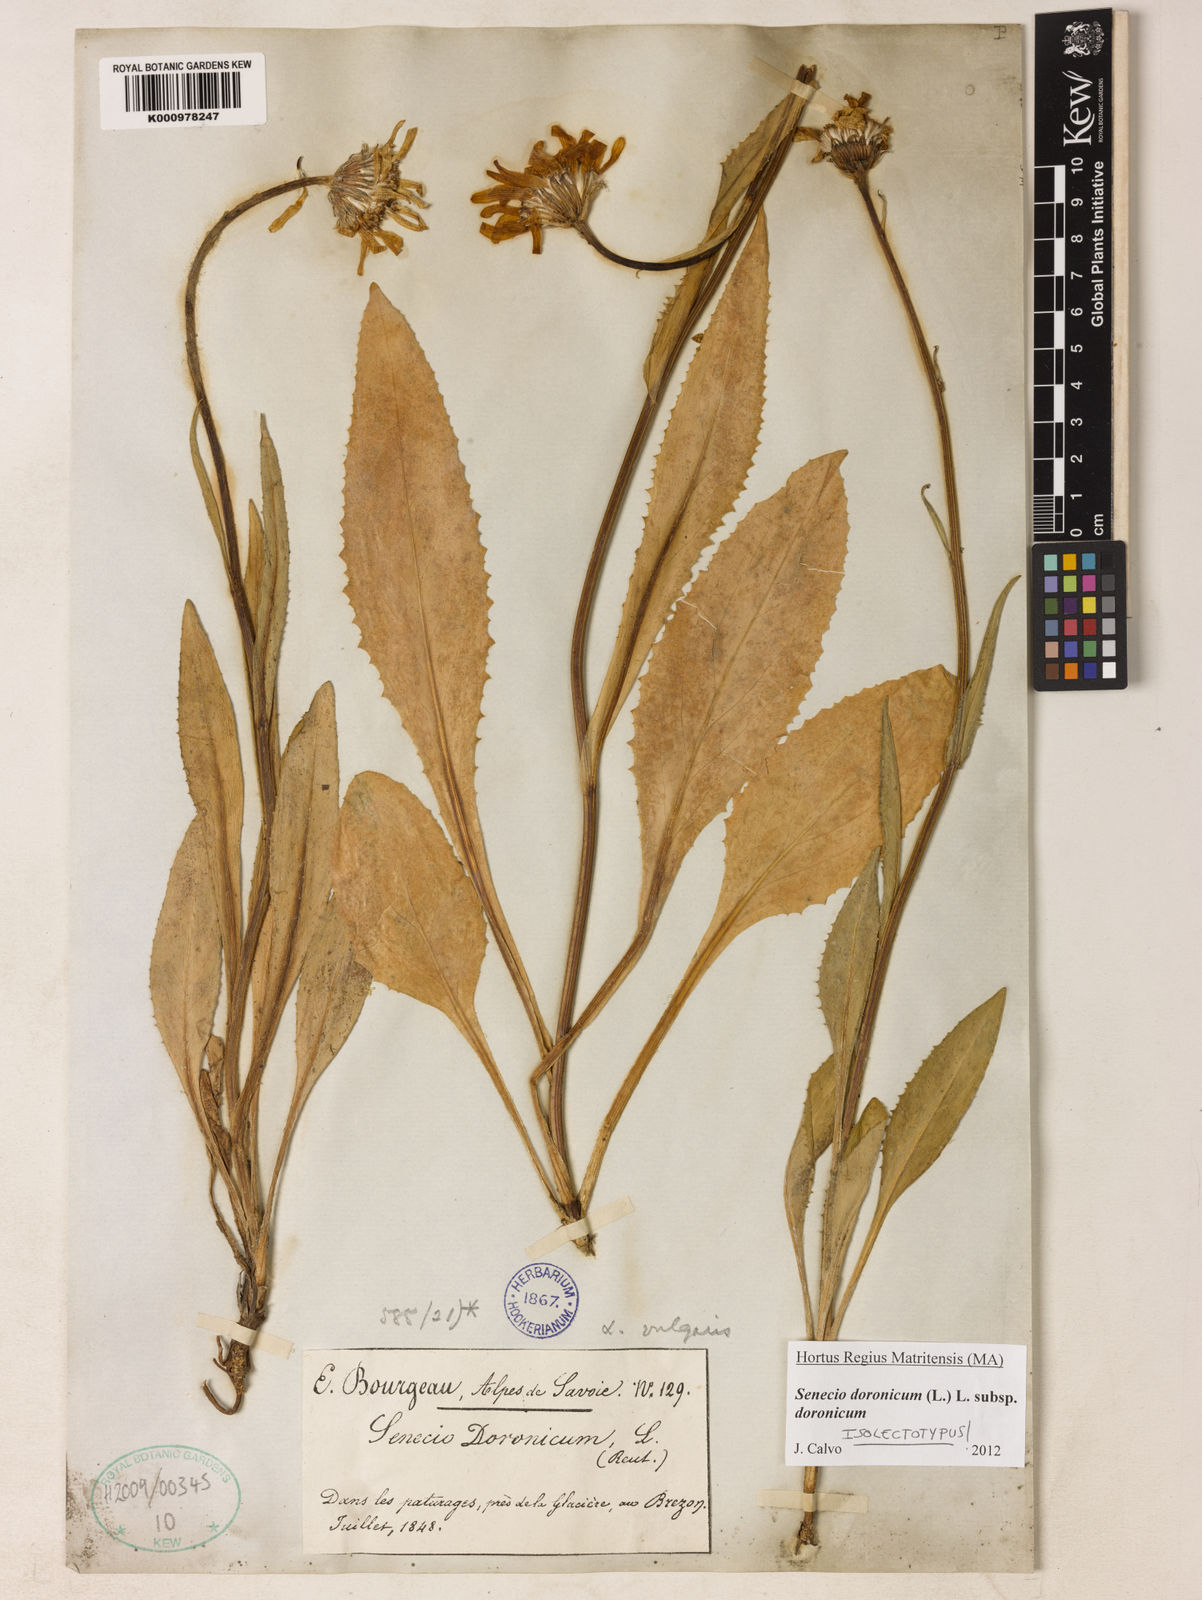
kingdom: Plantae
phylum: Tracheophyta
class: Magnoliopsida
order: Asterales
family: Asteraceae
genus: Senecio
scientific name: Senecio doronicum
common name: Chamois ragwort
